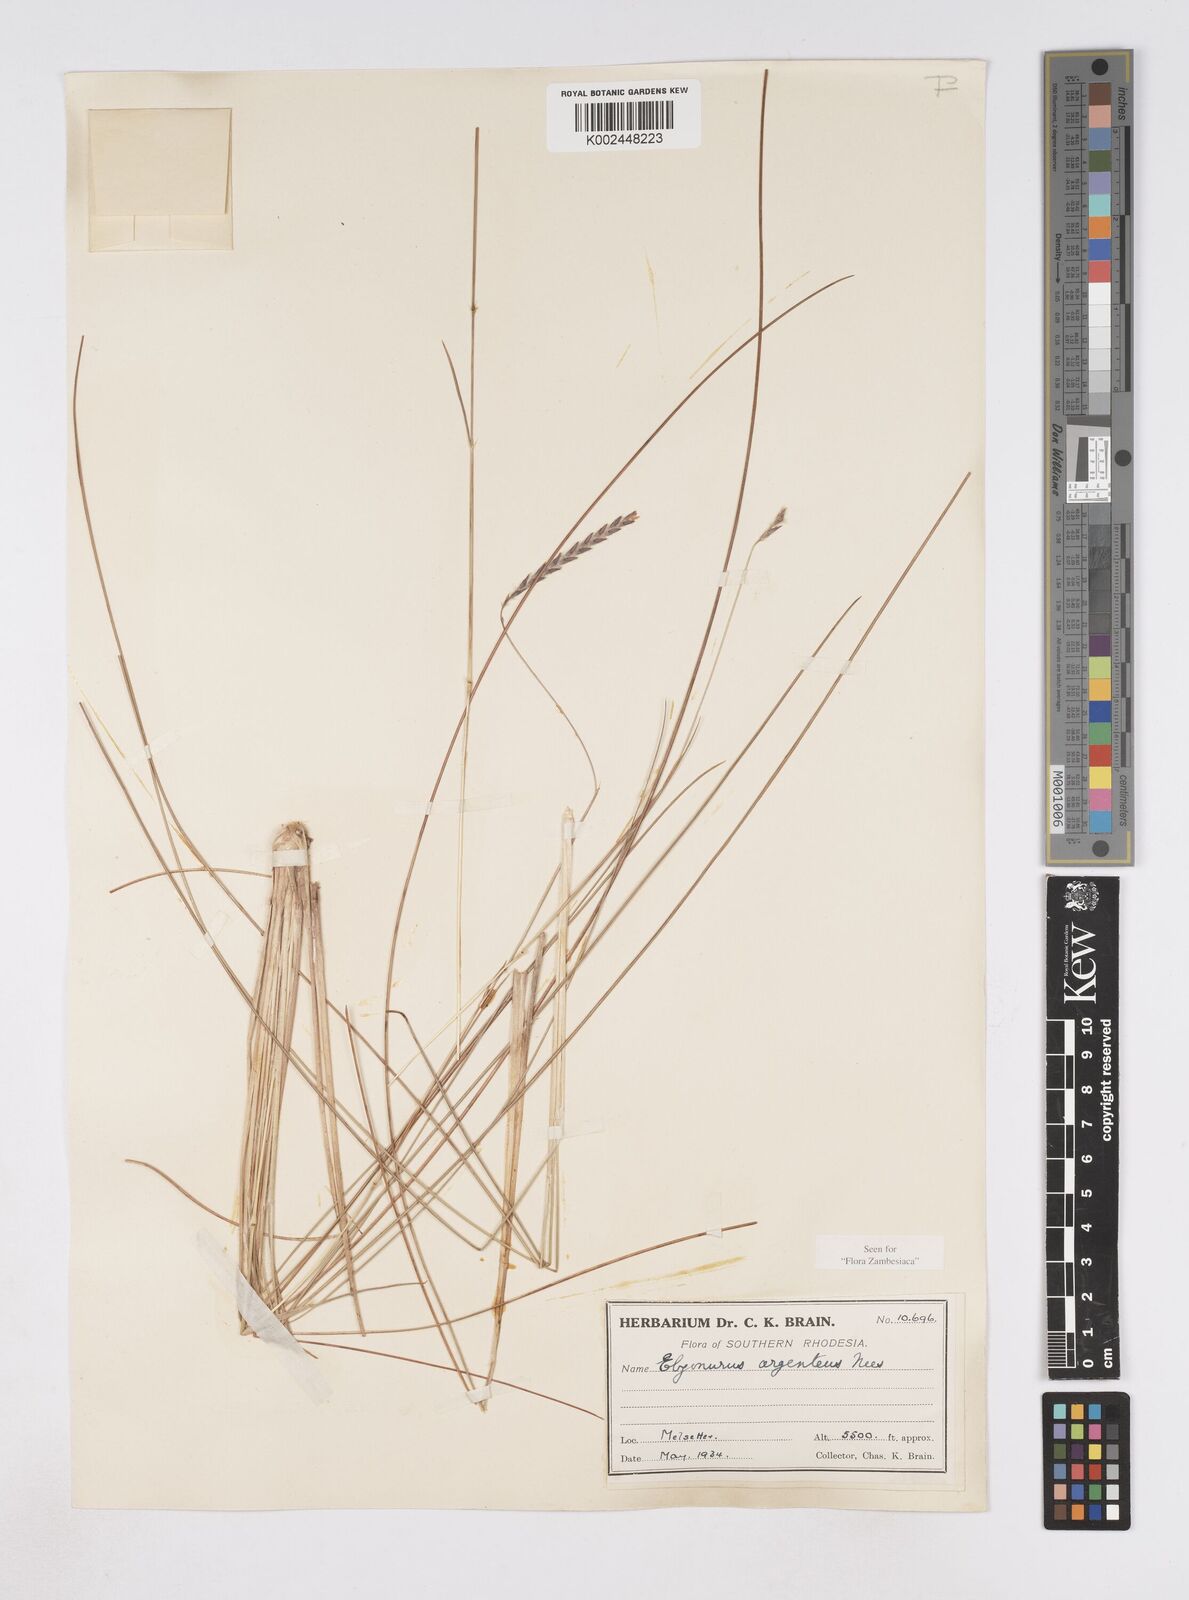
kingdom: Plantae
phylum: Tracheophyta
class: Liliopsida
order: Poales
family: Poaceae
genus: Elionurus
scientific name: Elionurus muticus
